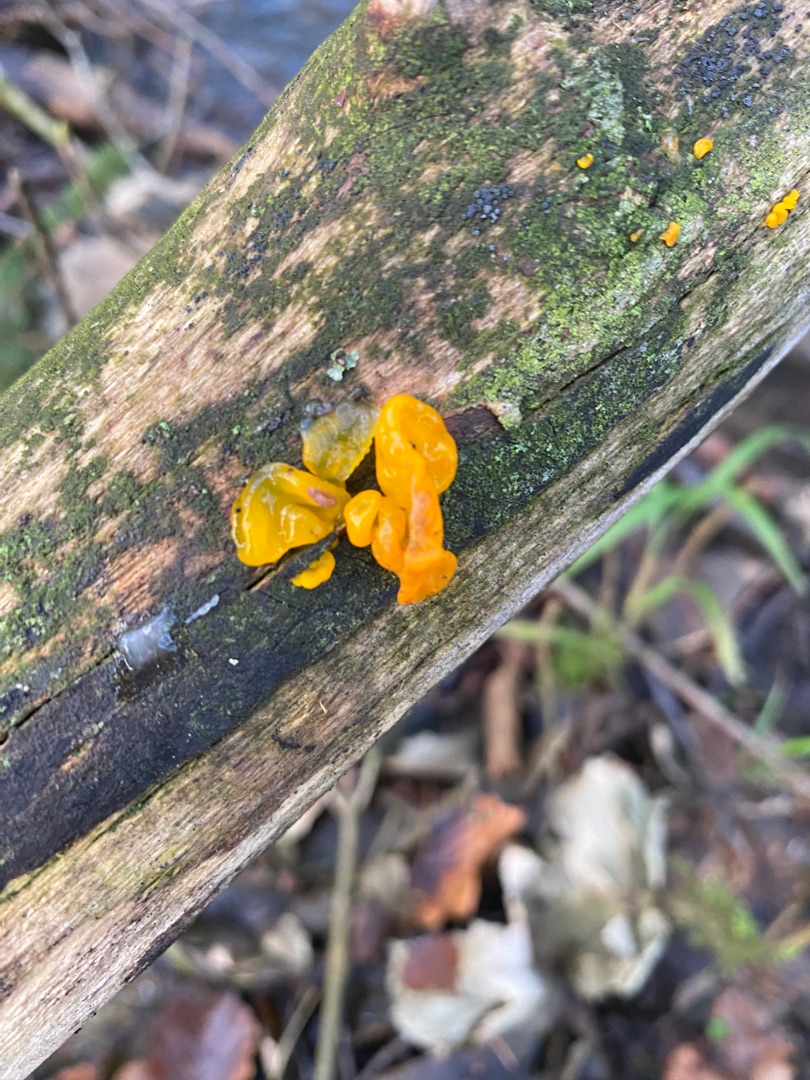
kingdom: Fungi
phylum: Basidiomycota
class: Tremellomycetes
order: Tremellales
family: Tremellaceae
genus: Tremella
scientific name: Tremella mesenterica
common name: Gul bævresvamp
